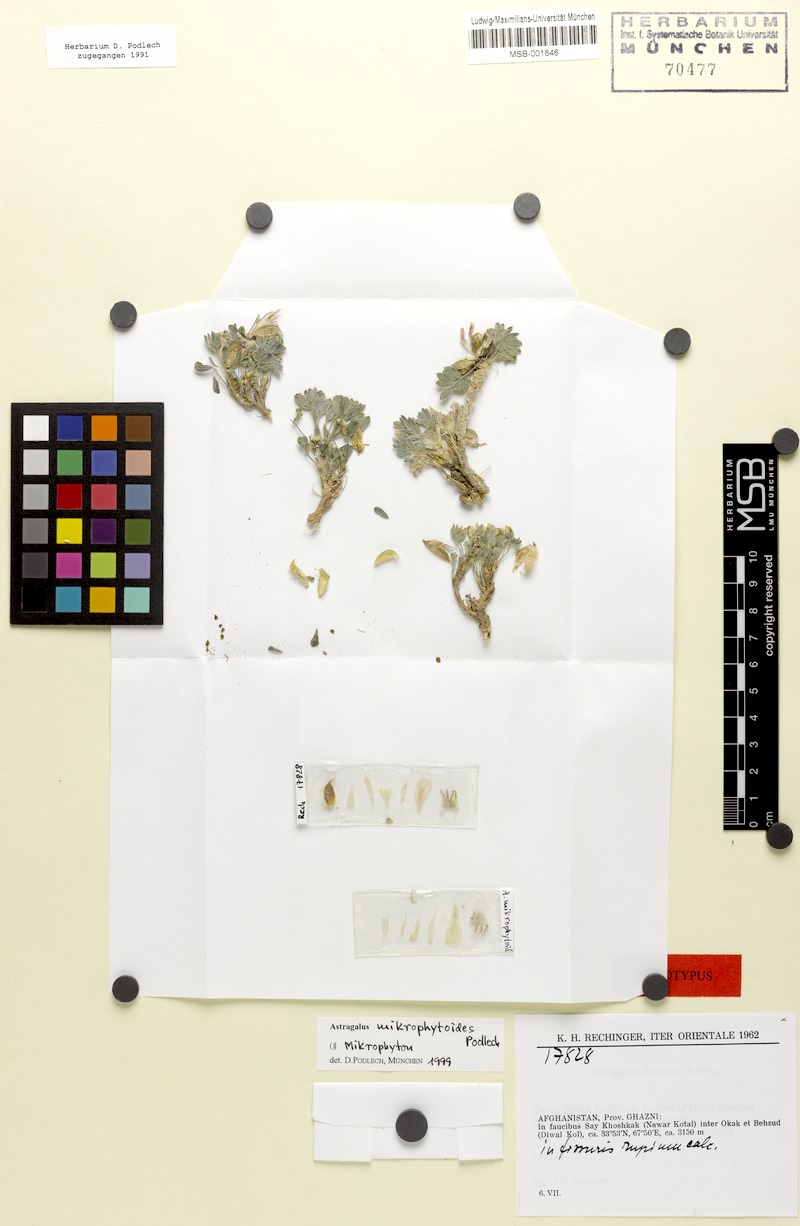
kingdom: Plantae
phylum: Tracheophyta
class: Magnoliopsida
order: Fabales
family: Fabaceae
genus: Astragalus
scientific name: Astragalus mikrophytoides
